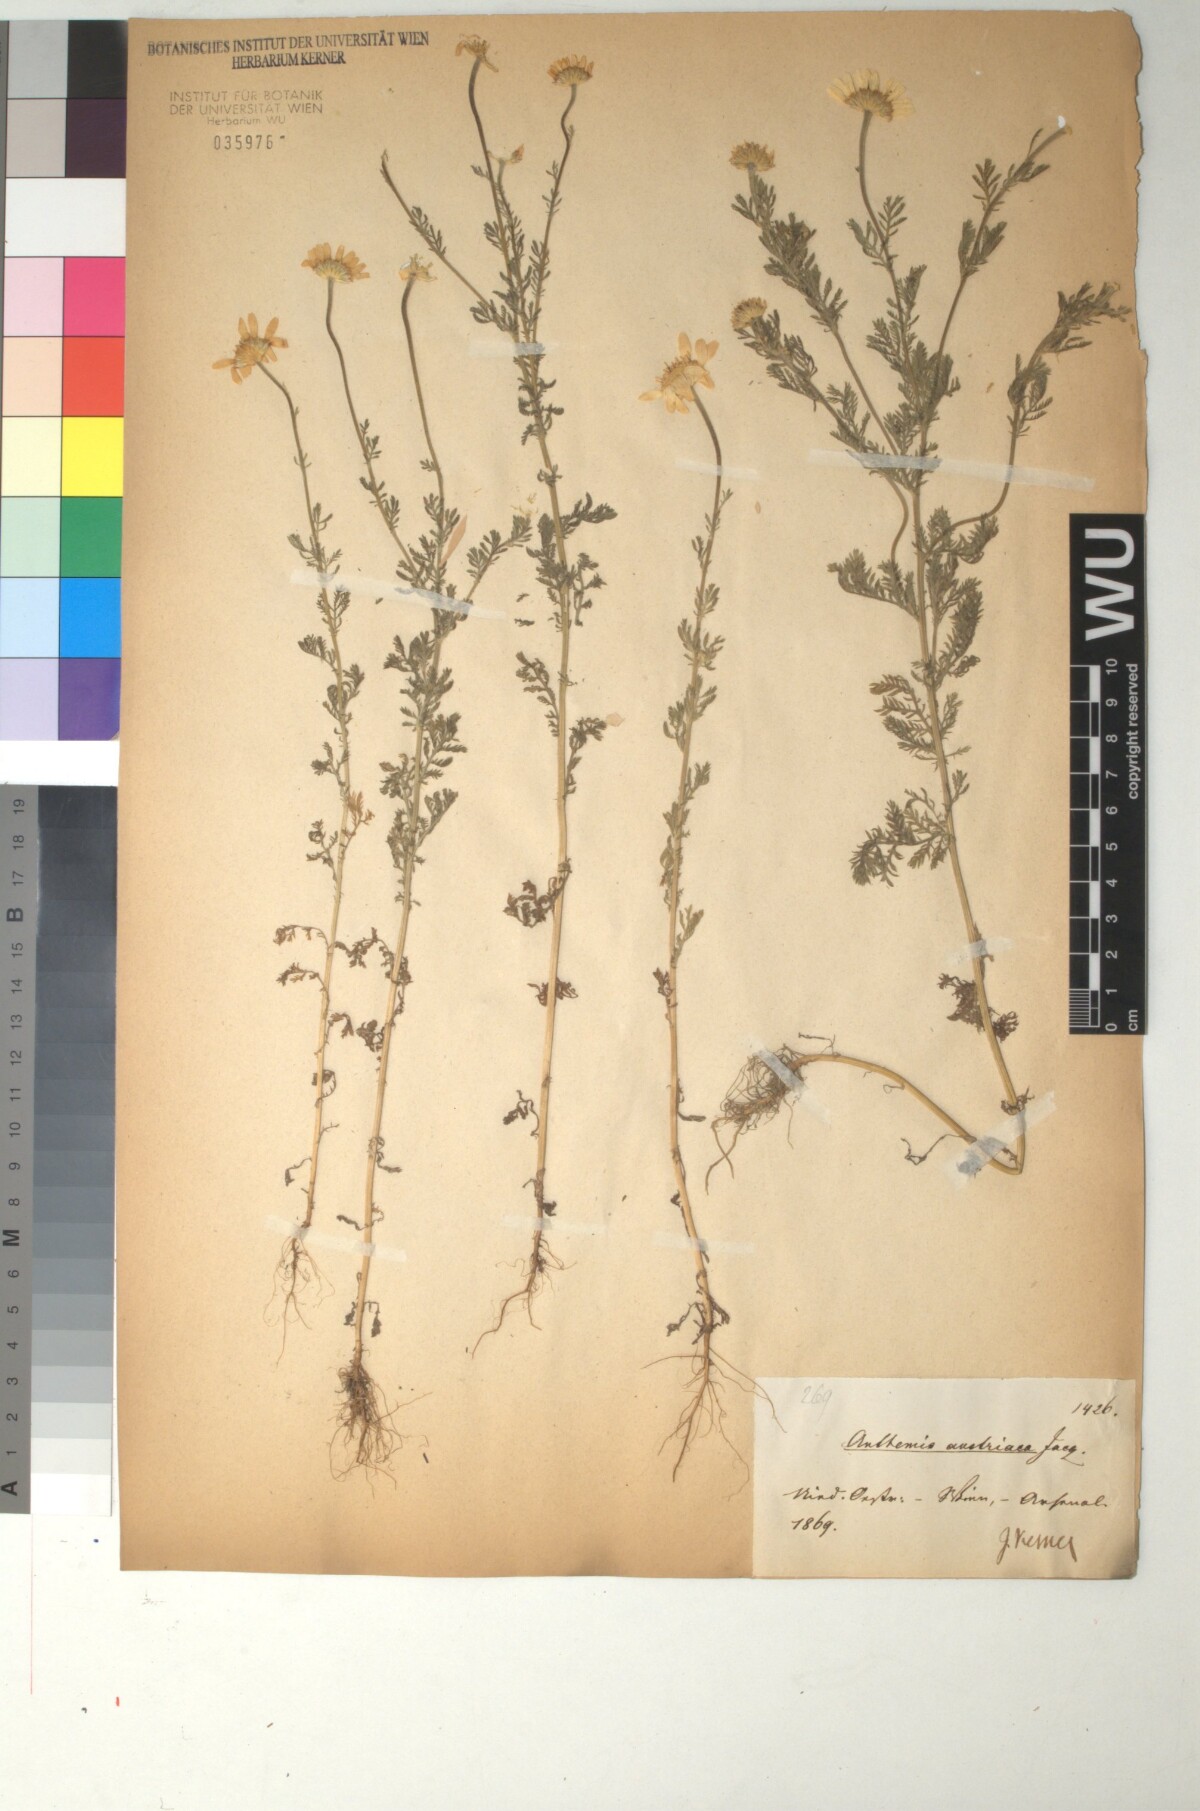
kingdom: Plantae
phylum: Tracheophyta
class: Magnoliopsida
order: Asterales
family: Asteraceae
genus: Cota
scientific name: Cota austriaca
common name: Austrian chamomile
